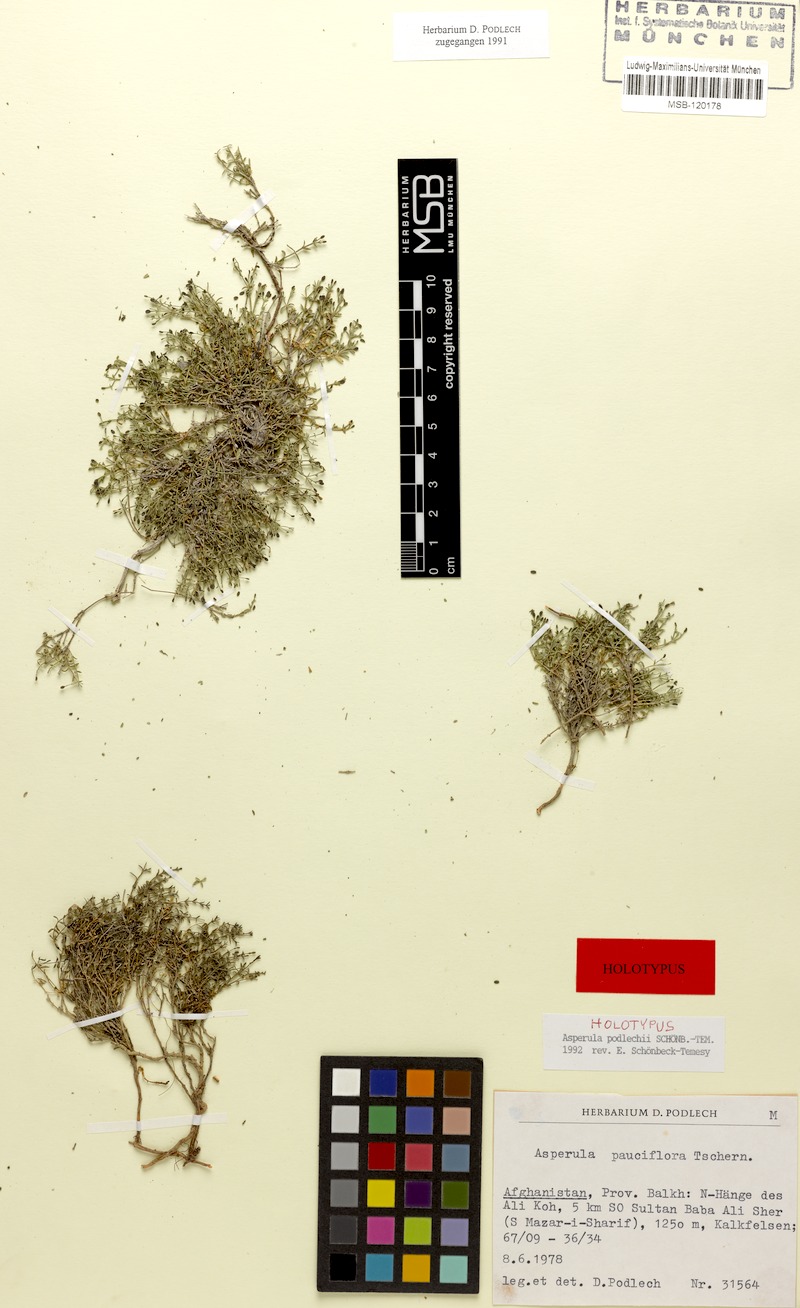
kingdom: Plantae
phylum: Tracheophyta
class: Magnoliopsida
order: Gentianales
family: Rubiaceae
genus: Asperula
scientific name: Asperula podlechii
